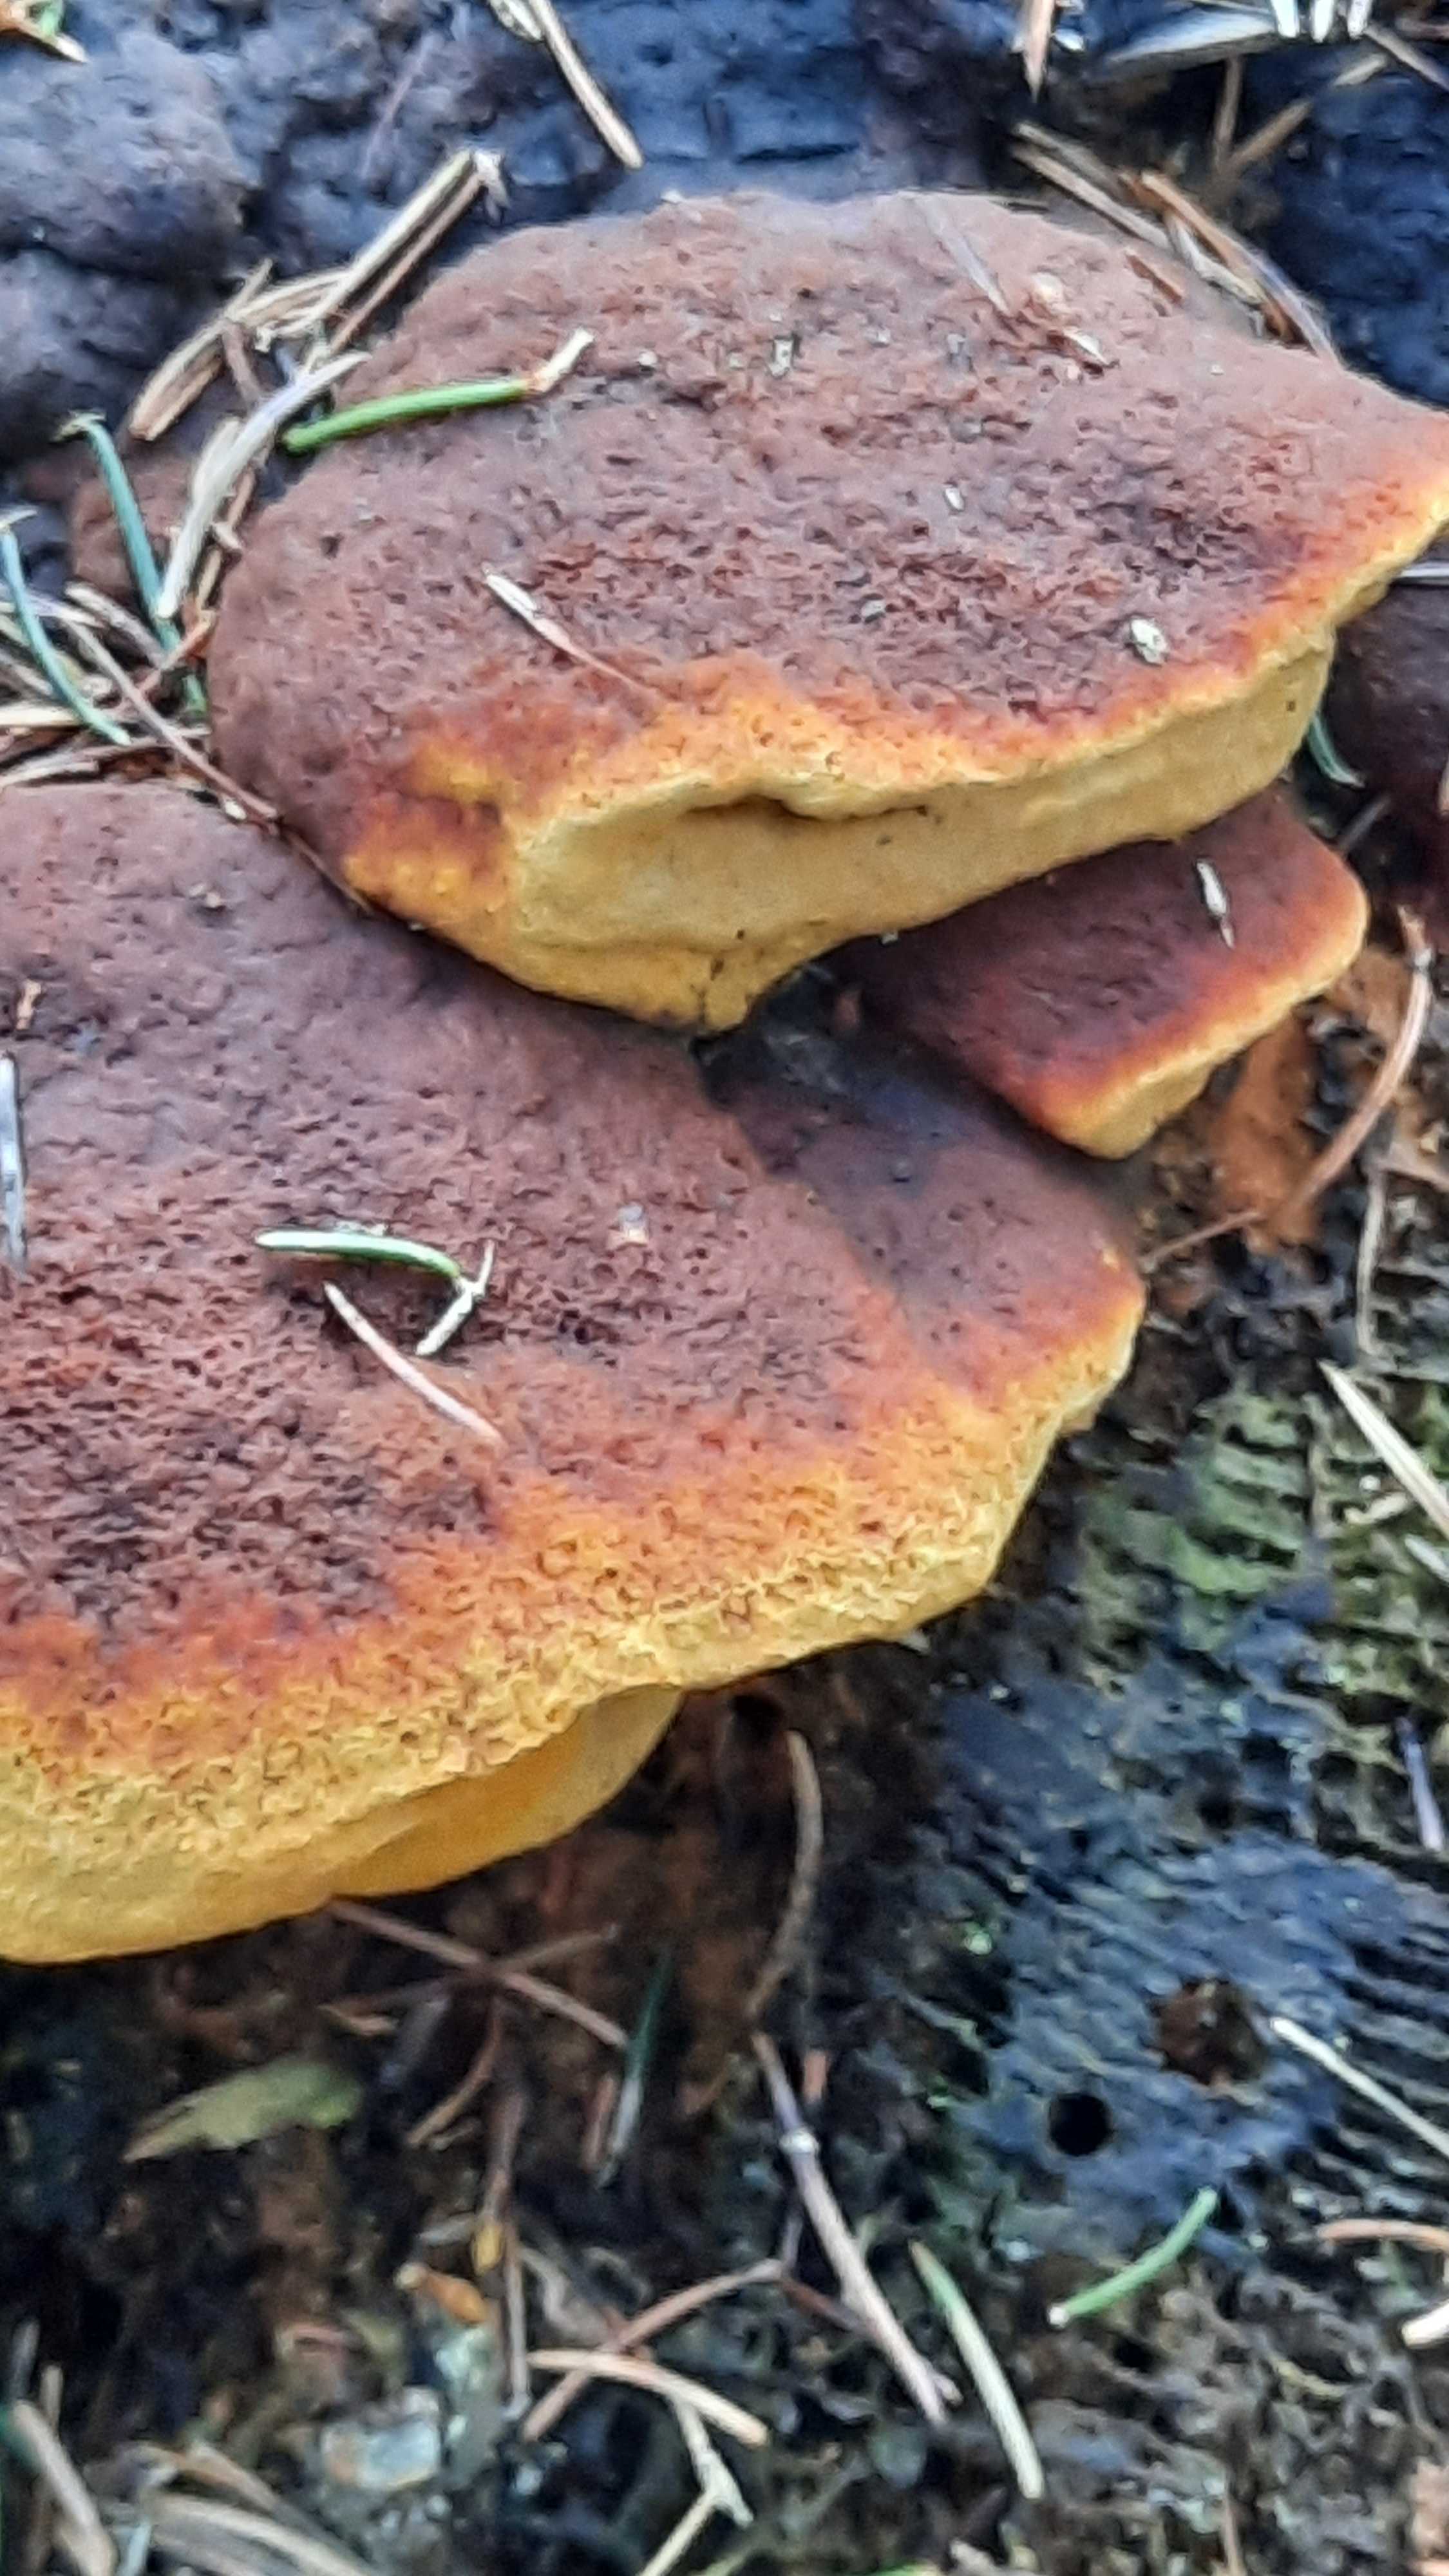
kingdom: Fungi
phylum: Basidiomycota
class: Agaricomycetes
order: Gloeophyllales
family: Gloeophyllaceae
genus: Gloeophyllum
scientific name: Gloeophyllum odoratum
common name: duftende korkhat
